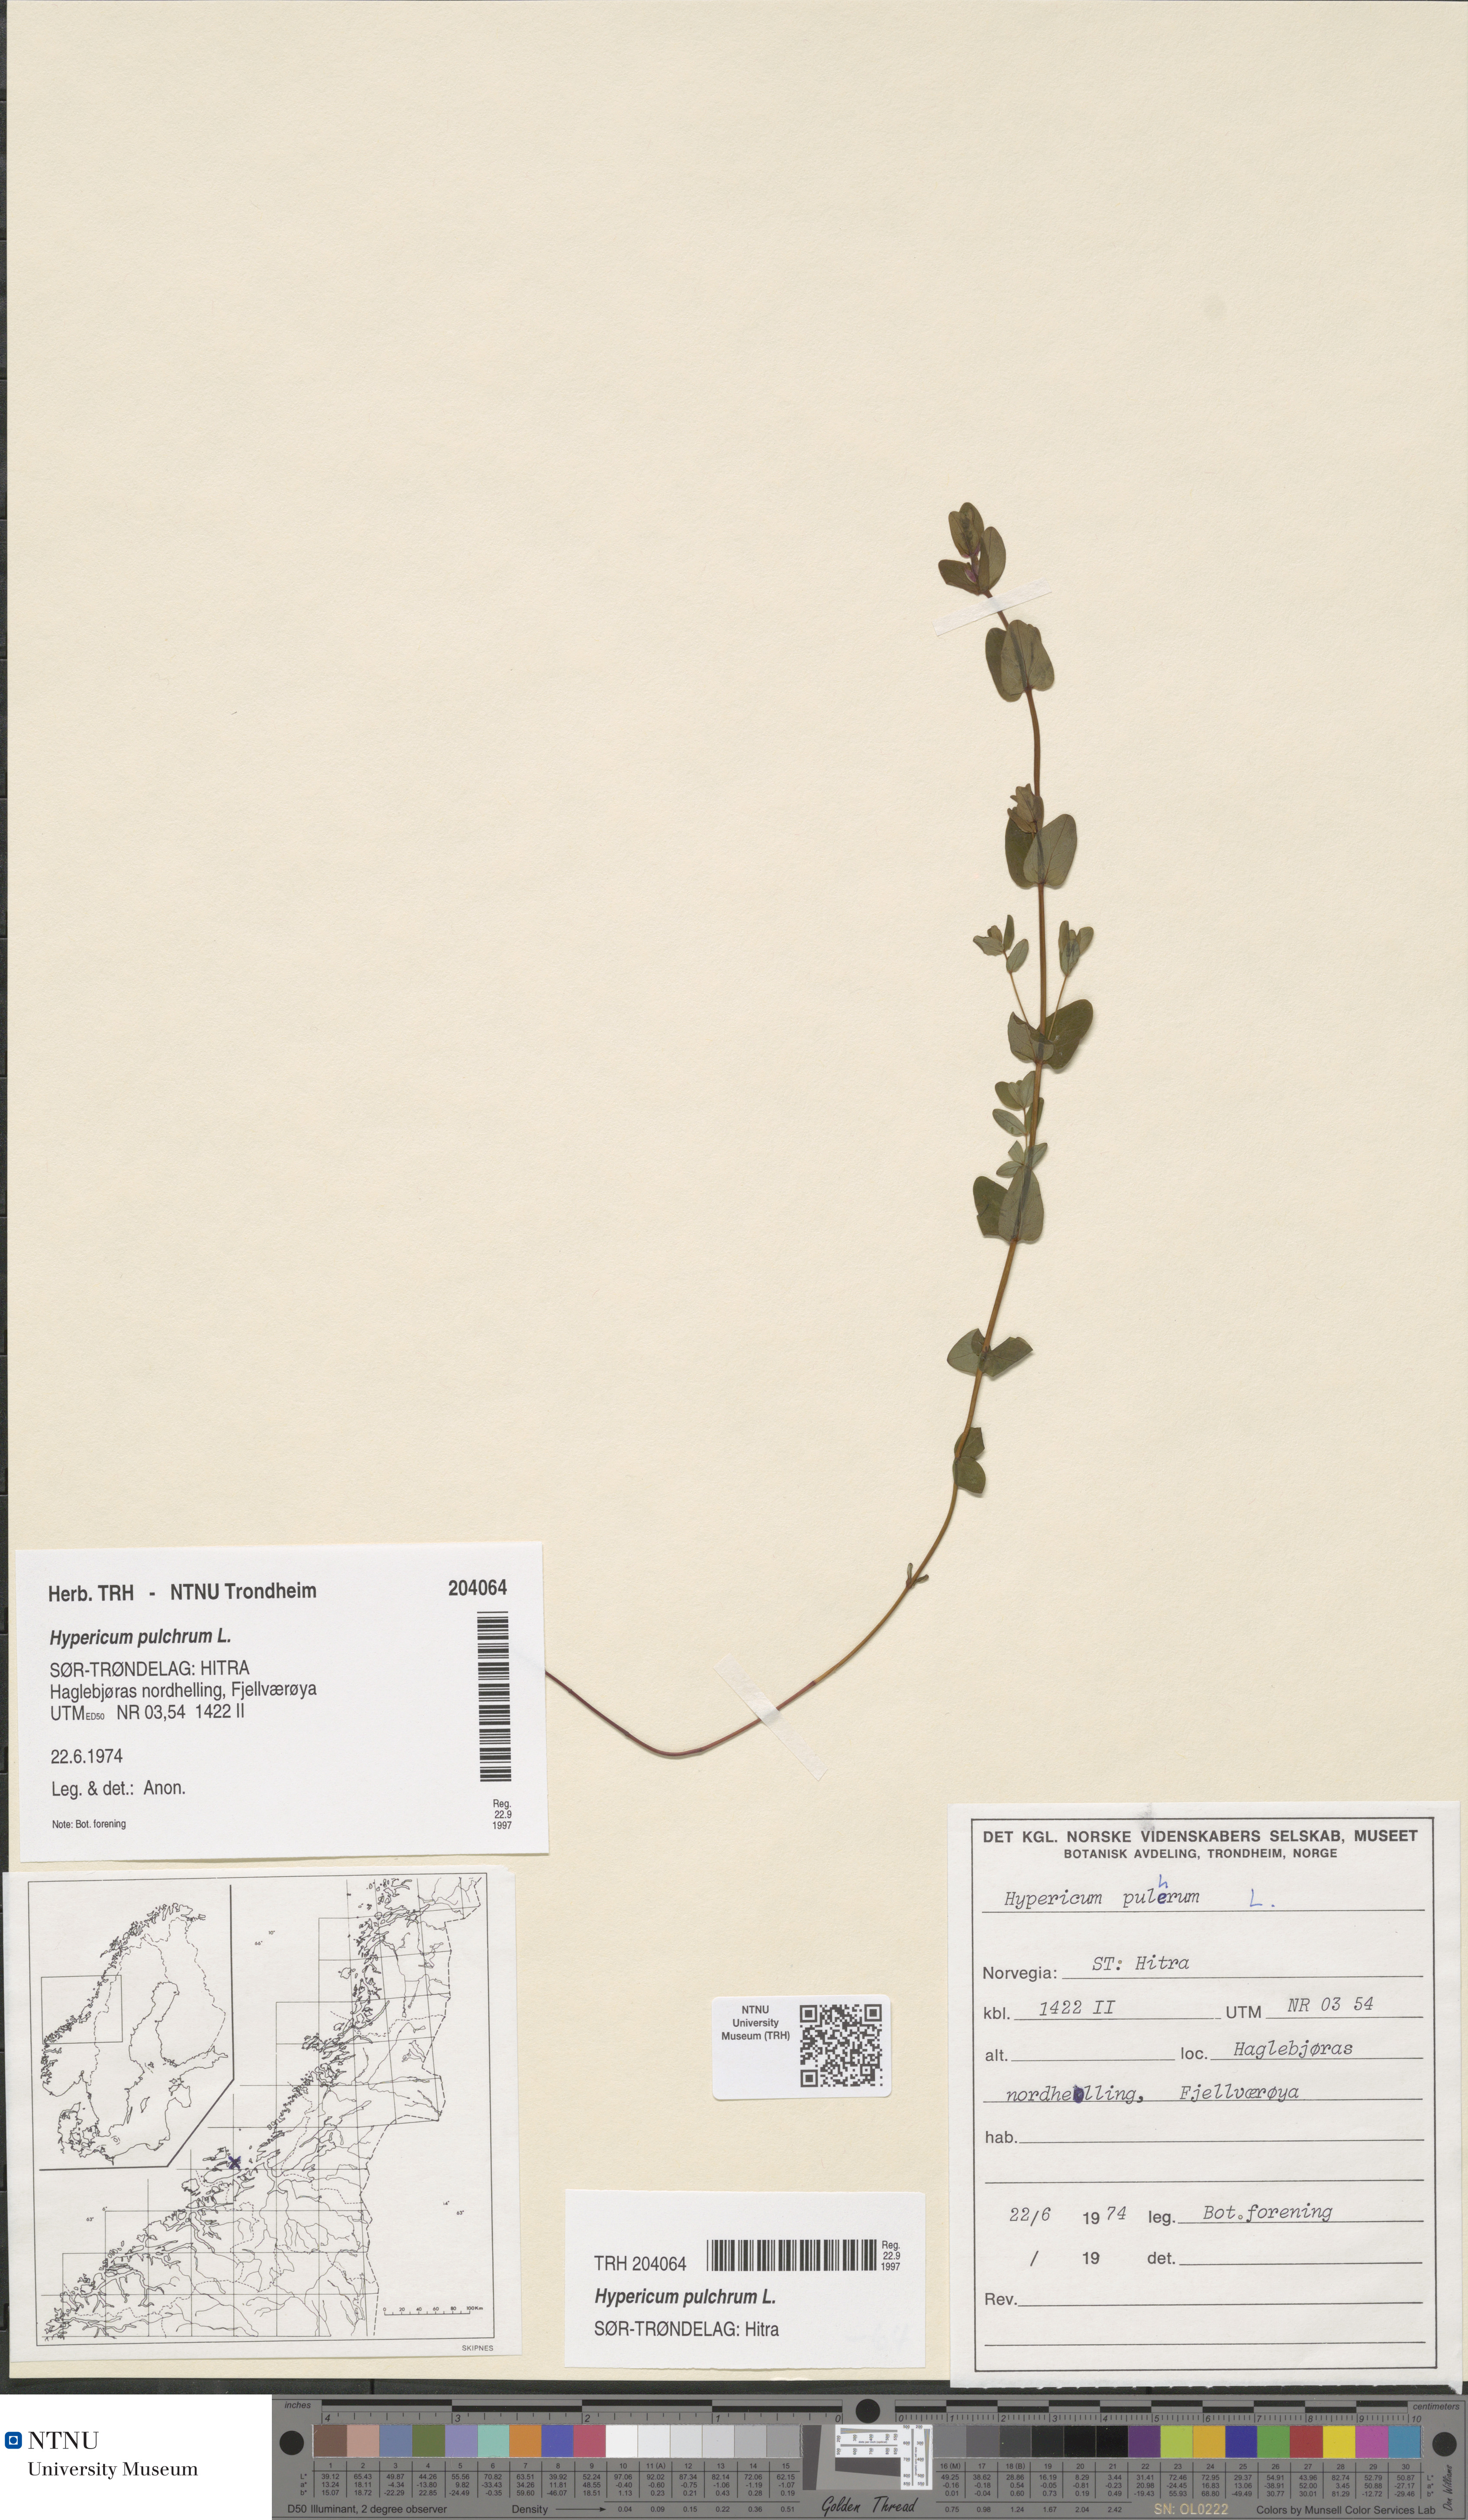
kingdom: Plantae
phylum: Tracheophyta
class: Magnoliopsida
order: Malpighiales
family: Hypericaceae
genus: Hypericum
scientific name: Hypericum pulchrum
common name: Slender st. john's-wort
